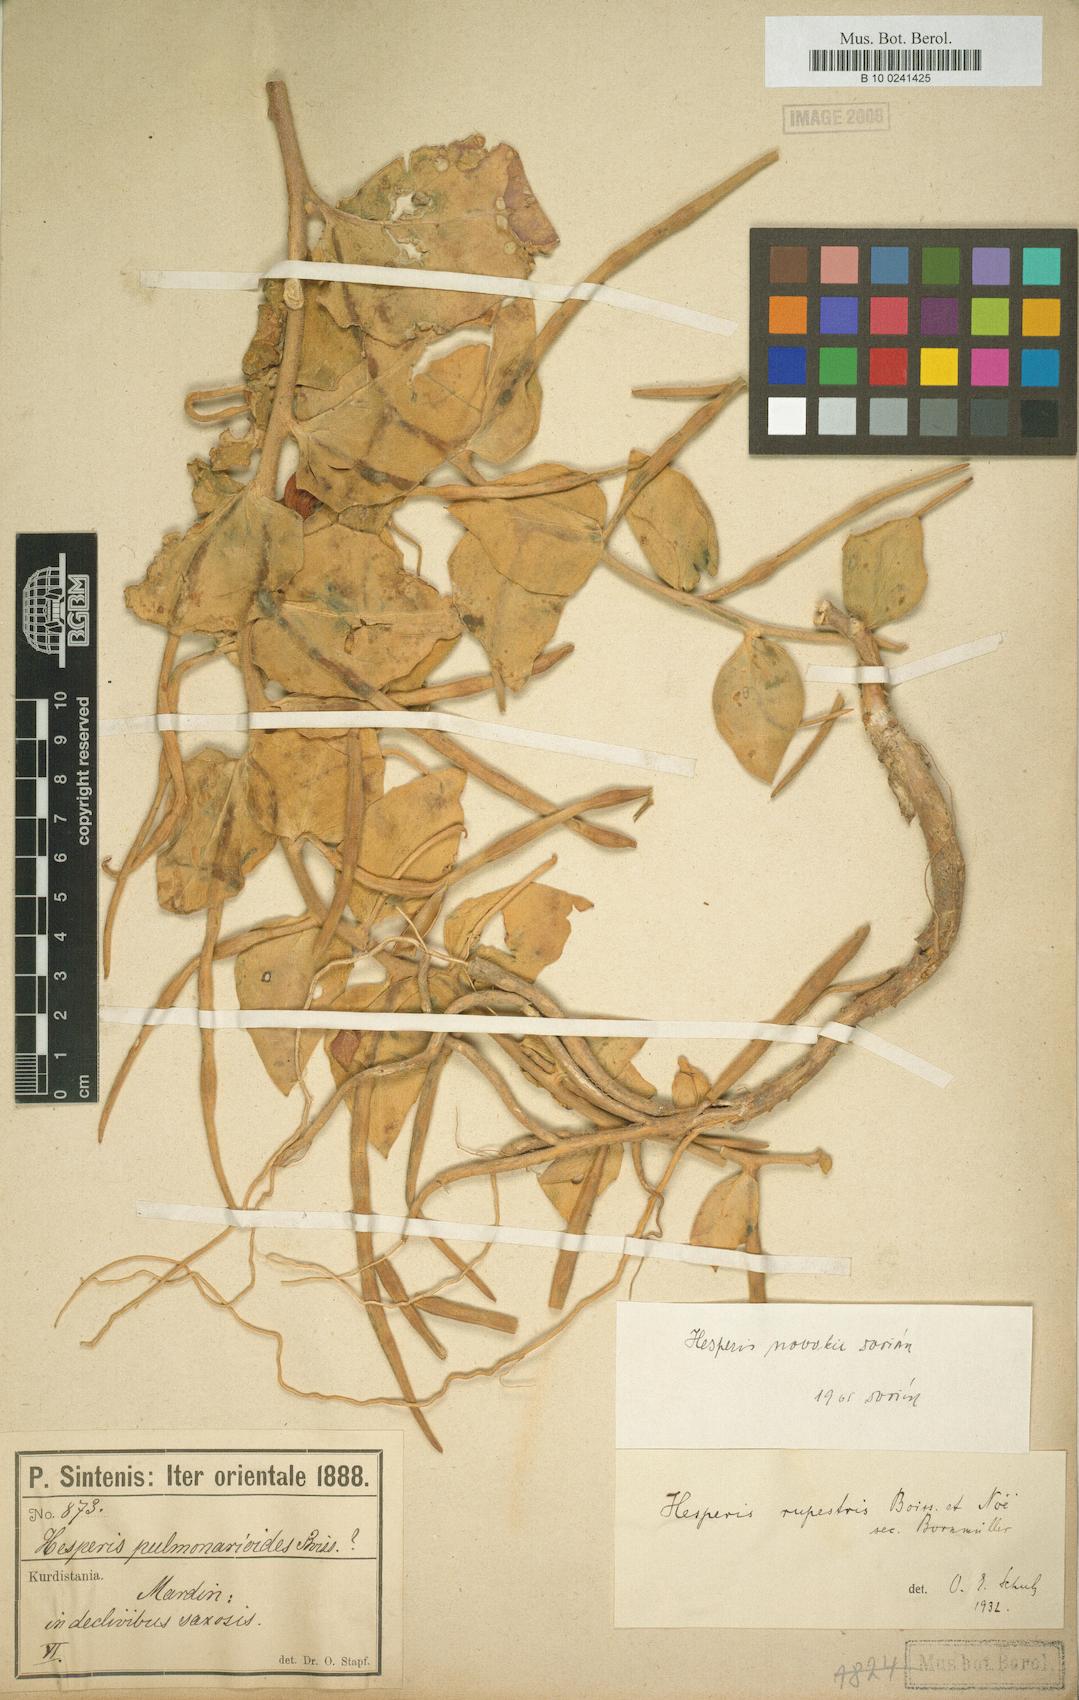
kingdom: Plantae
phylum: Tracheophyta
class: Magnoliopsida
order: Brassicales
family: Brassicaceae
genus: Hesperis
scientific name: Hesperis novakii
